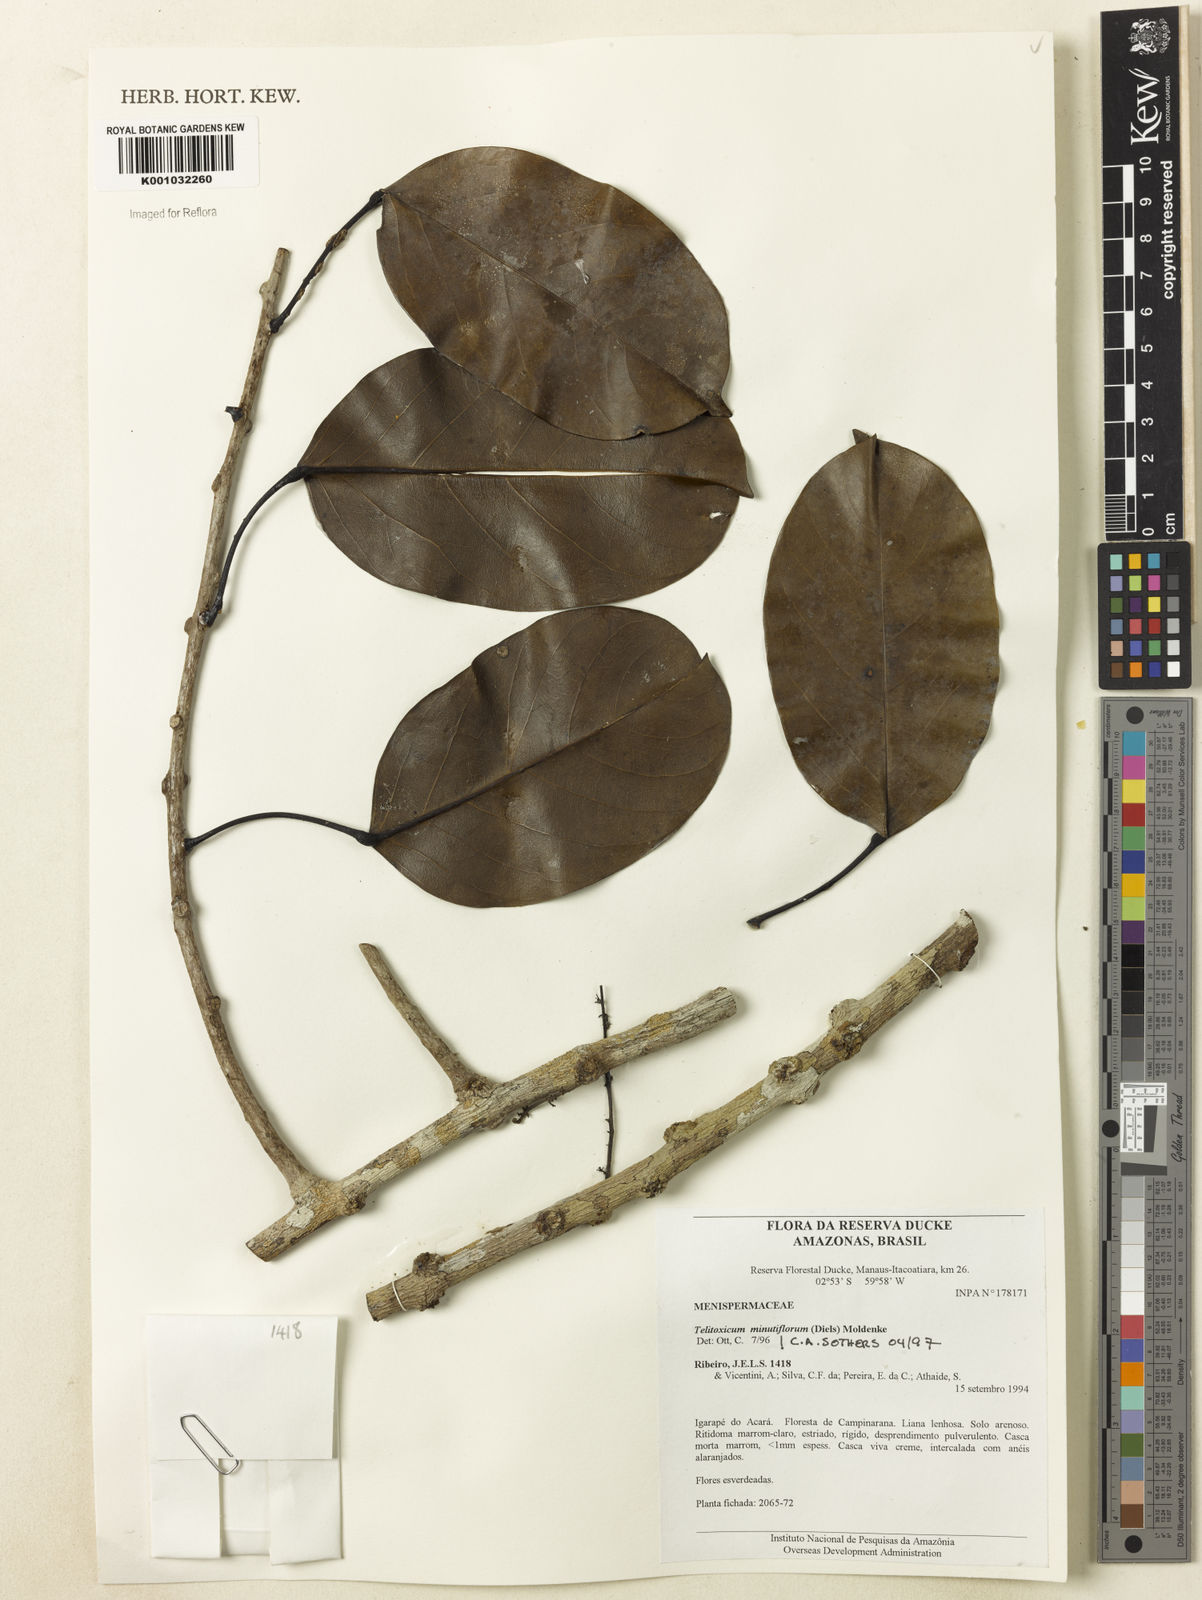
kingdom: Plantae
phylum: Tracheophyta
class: Magnoliopsida
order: Ranunculales
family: Menispermaceae
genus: Telitoxicum
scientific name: Telitoxicum minutiflorum
